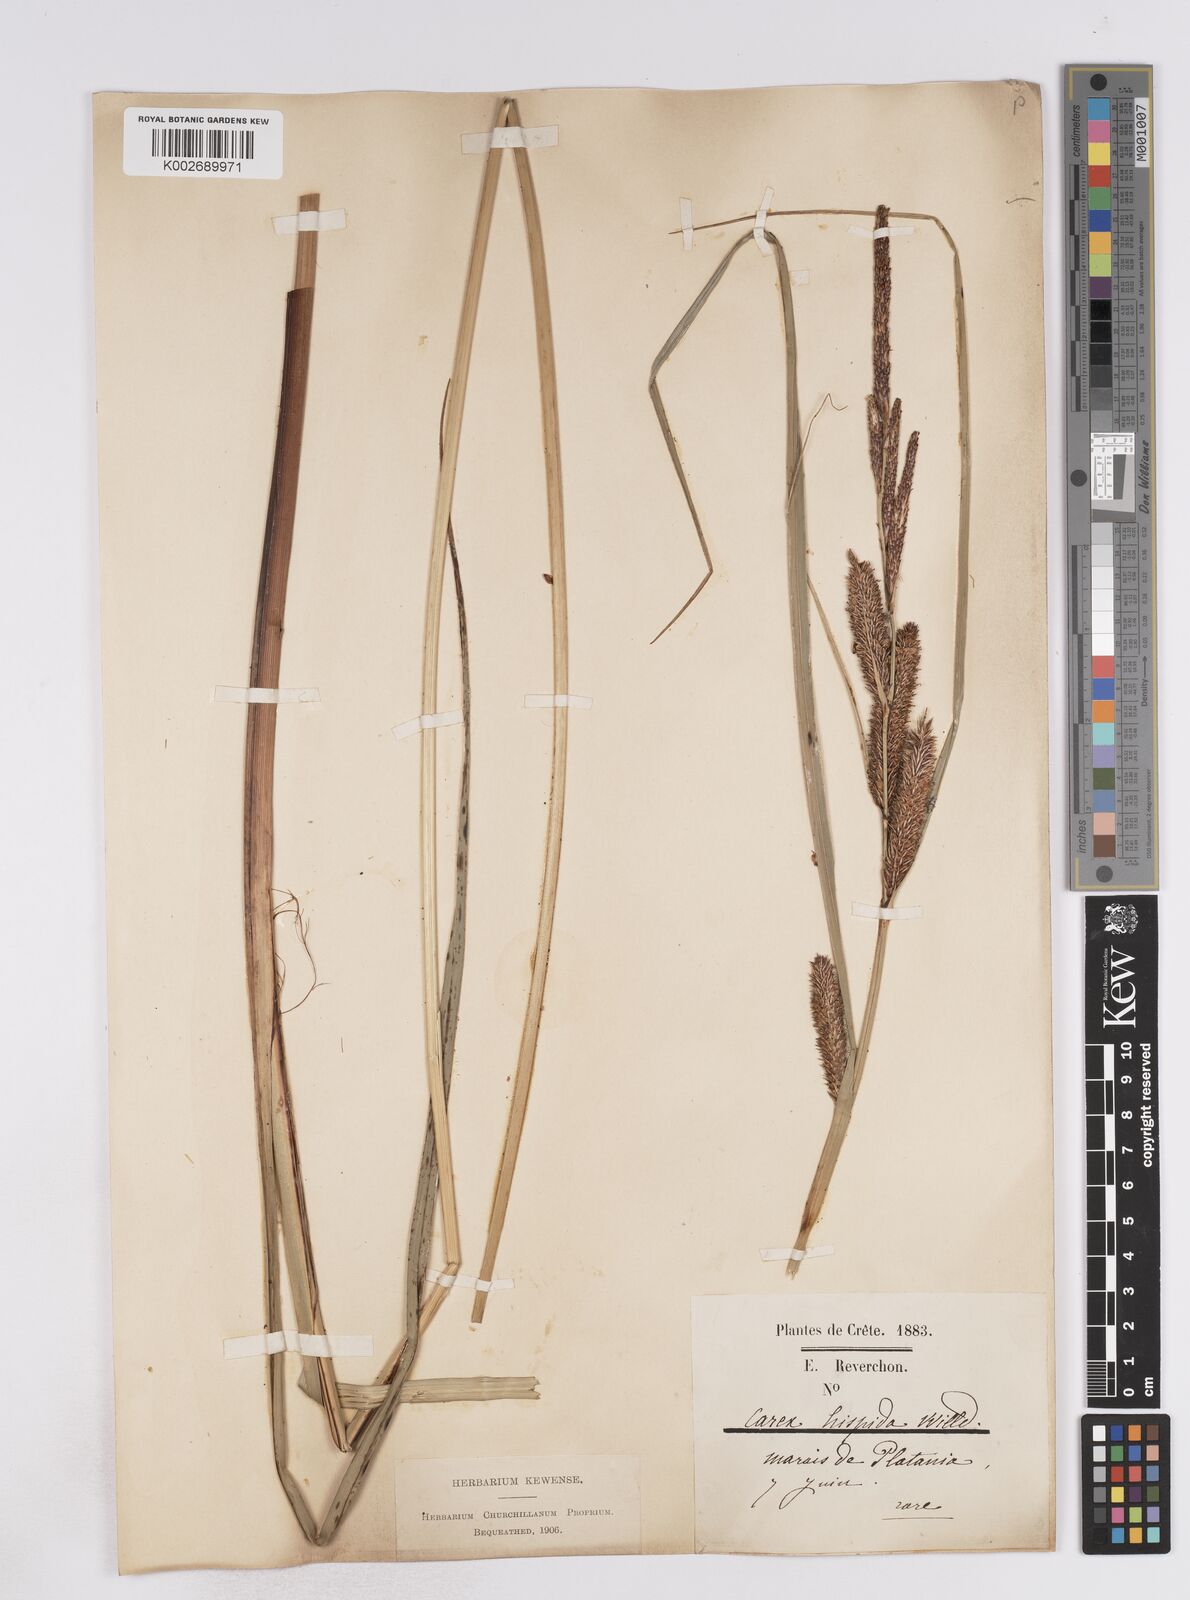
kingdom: Plantae
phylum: Tracheophyta
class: Liliopsida
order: Poales
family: Cyperaceae
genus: Carex
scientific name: Carex hispida
